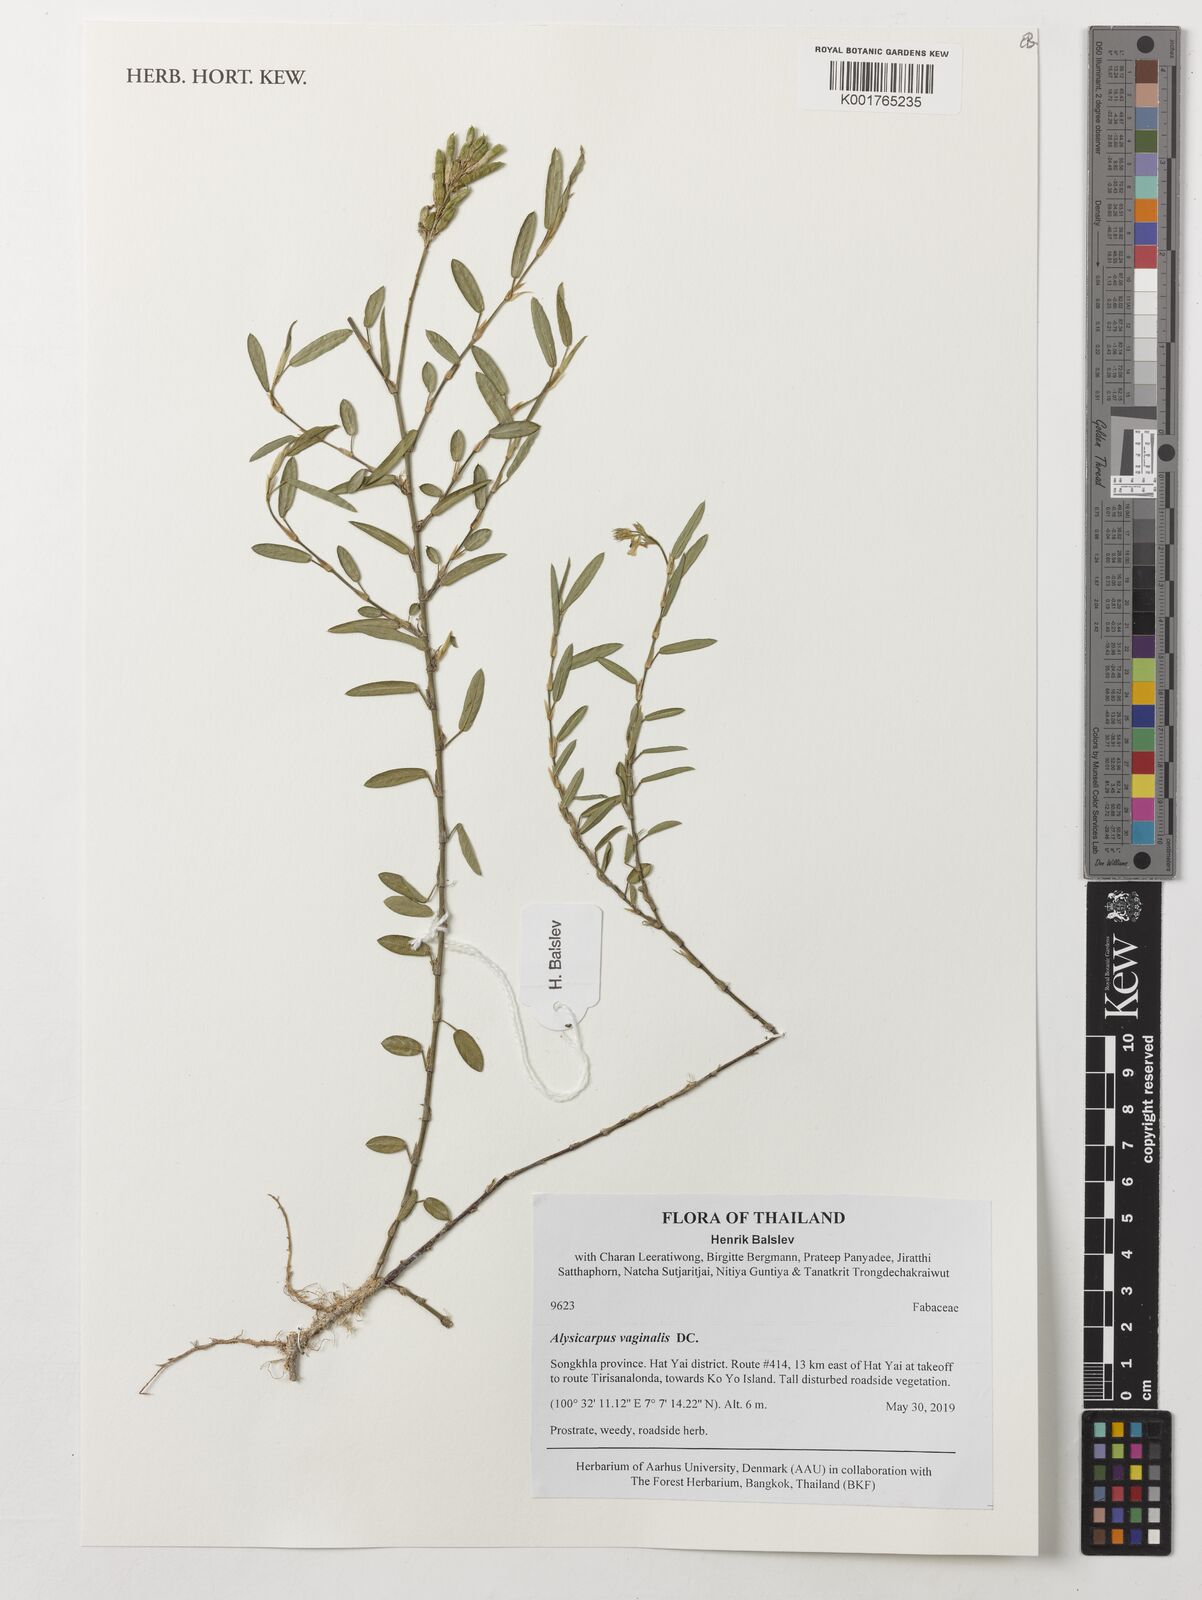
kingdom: Plantae
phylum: Tracheophyta
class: Magnoliopsida
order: Fabales
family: Fabaceae
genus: Alysicarpus
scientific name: Alysicarpus vaginalis
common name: White moneywort
